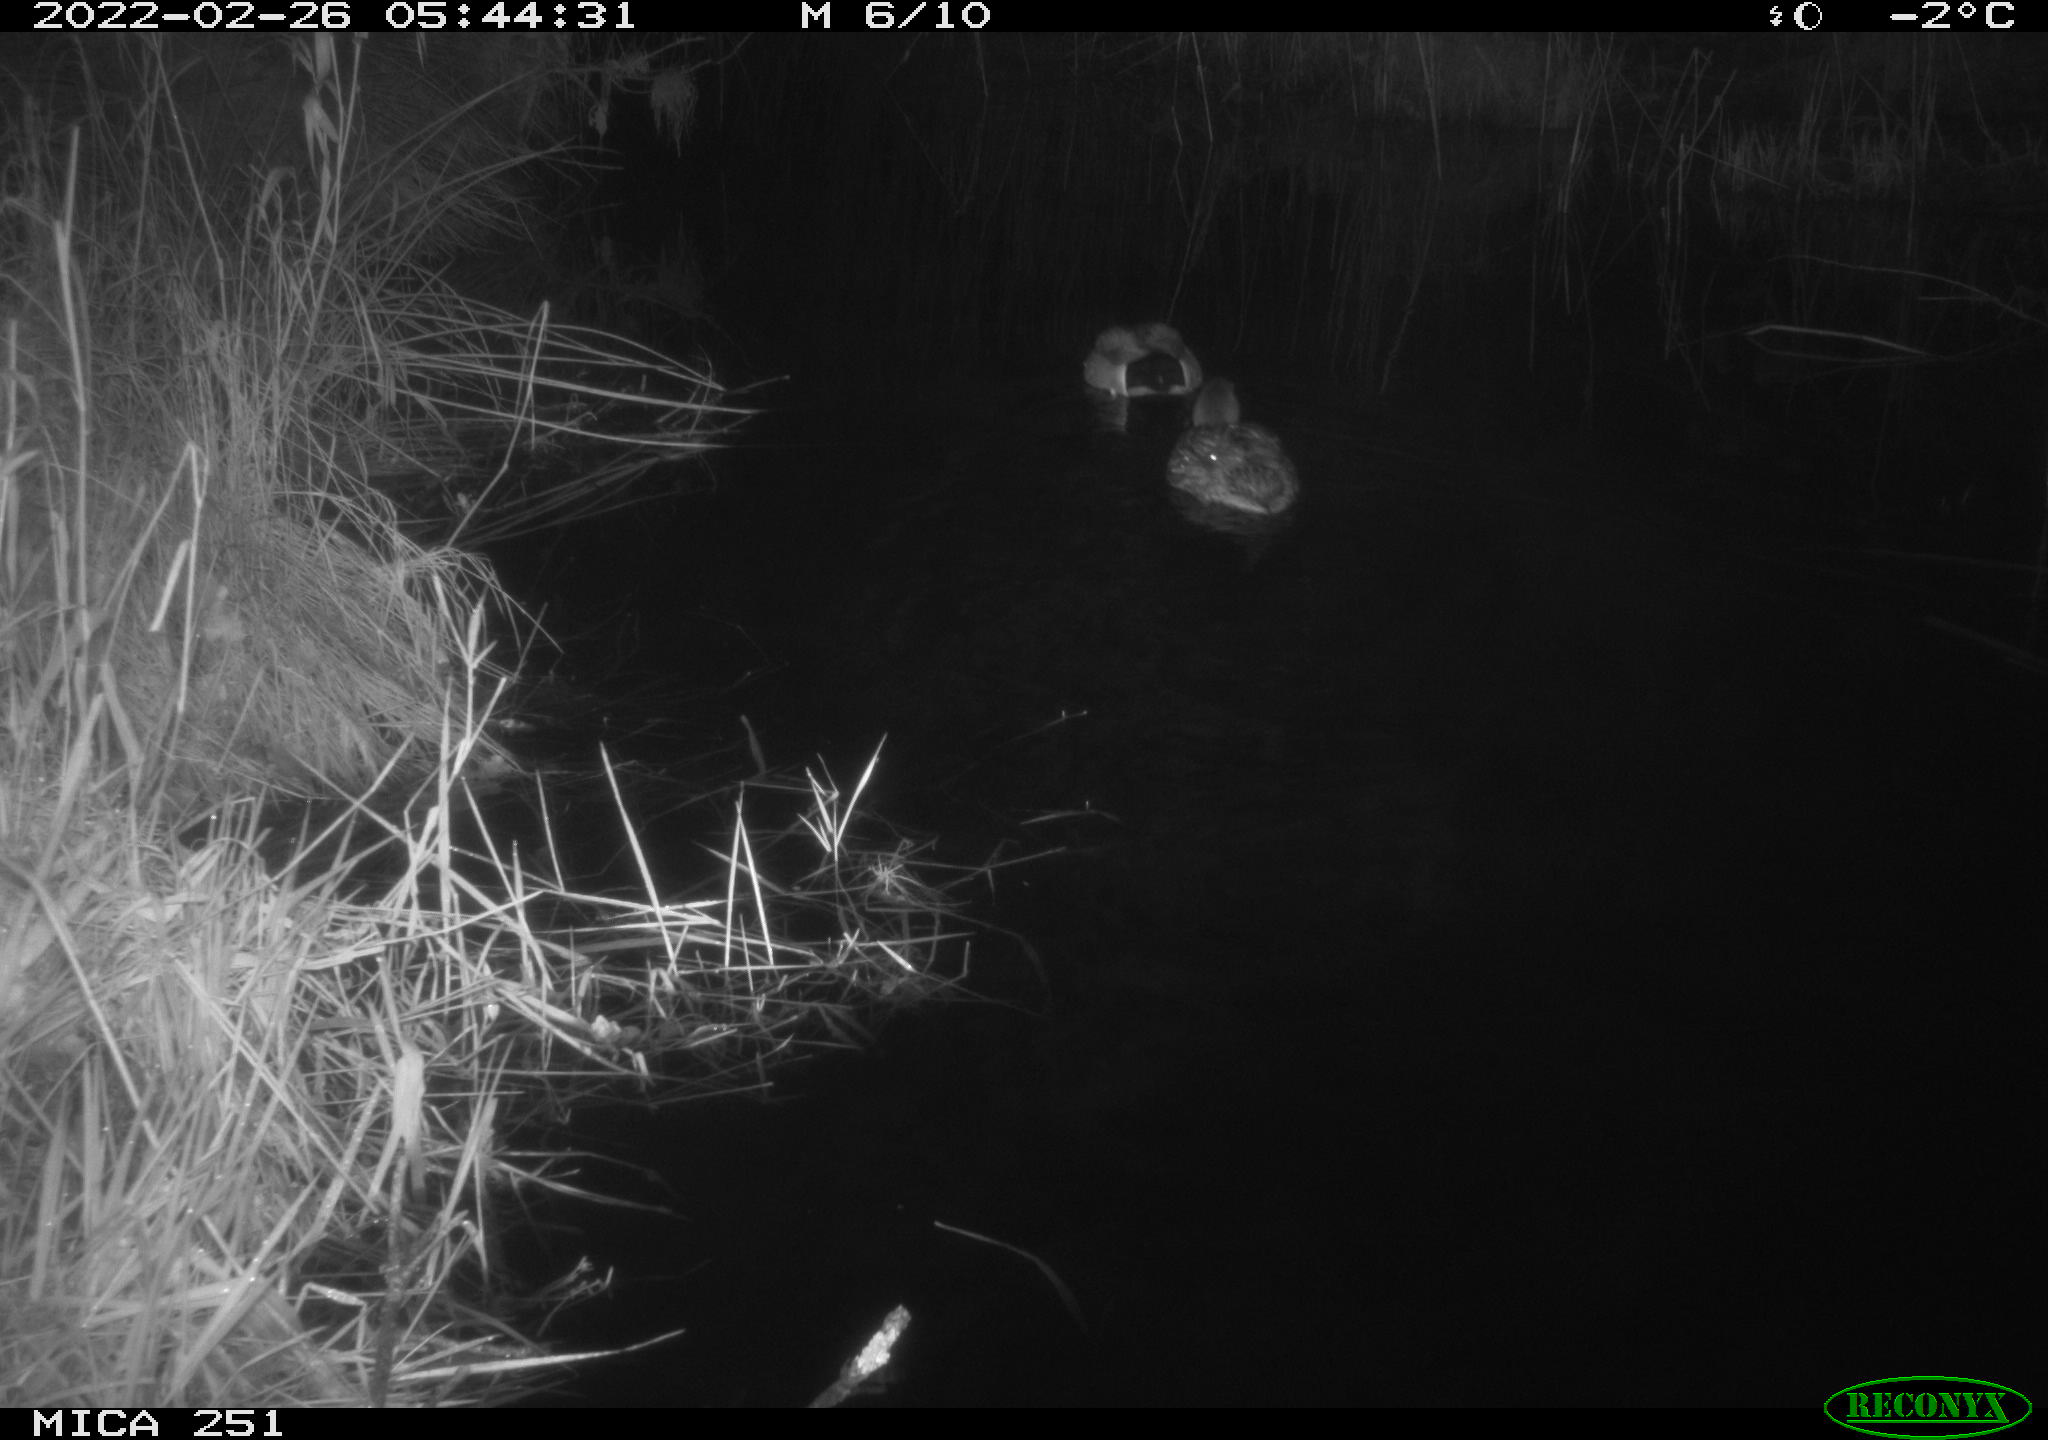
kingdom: Animalia
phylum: Chordata
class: Aves
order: Anseriformes
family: Anatidae
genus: Anas
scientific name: Anas platyrhynchos
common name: Mallard
